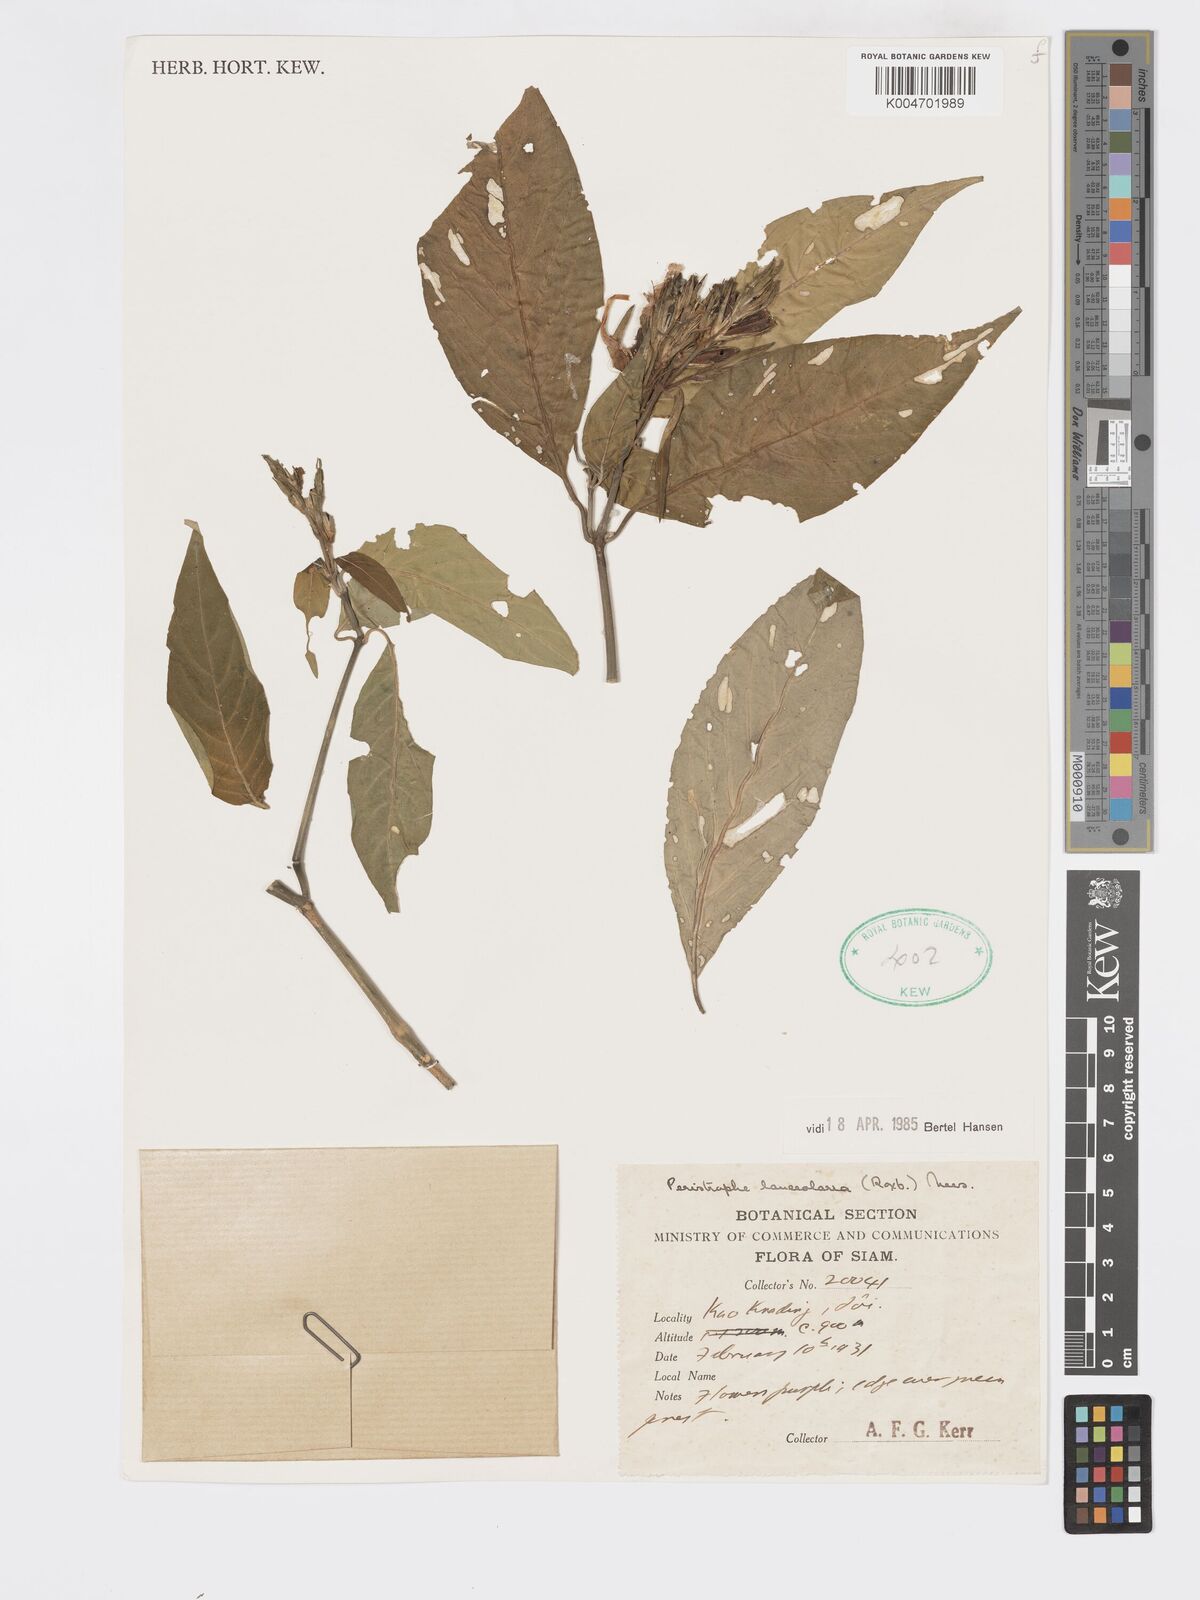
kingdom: Plantae
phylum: Tracheophyta
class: Magnoliopsida
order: Lamiales
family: Acanthaceae
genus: Dicliptera
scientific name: Dicliptera lanceolaria
